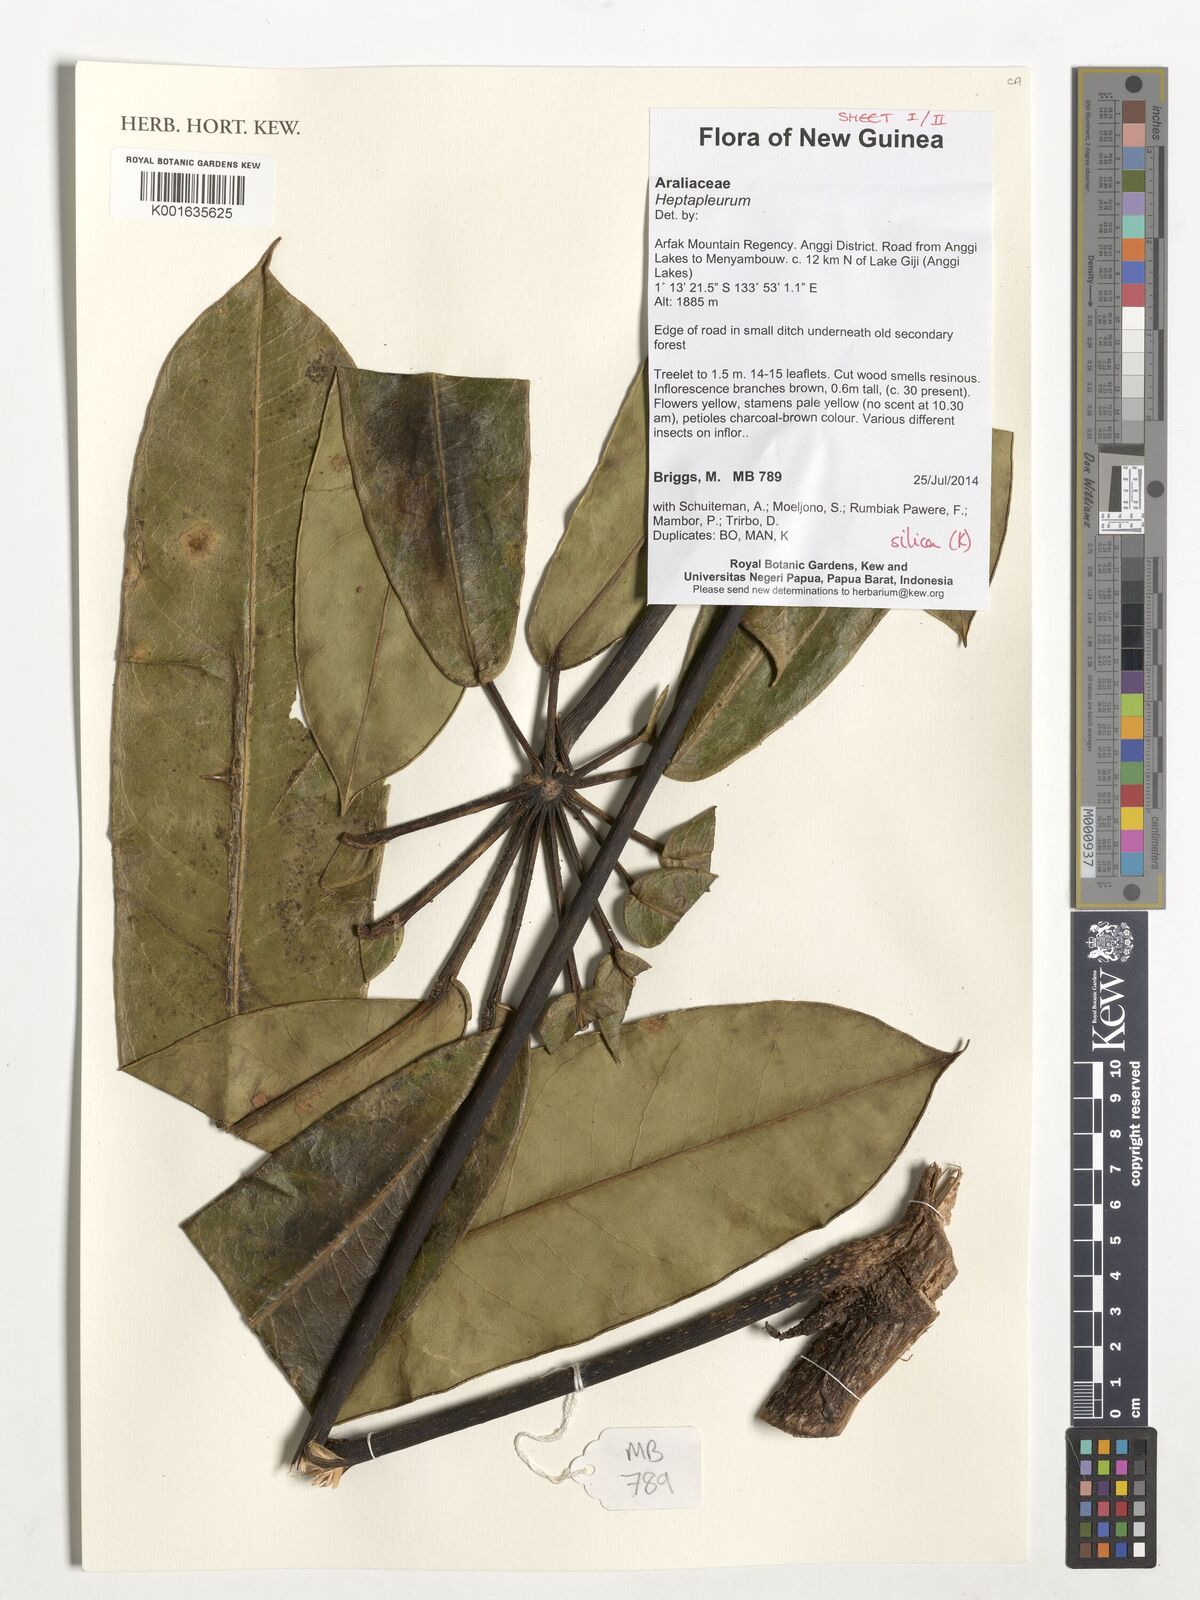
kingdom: Plantae
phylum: Tracheophyta
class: Magnoliopsida
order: Apiales
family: Araliaceae
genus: Heptapleurum
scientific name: Heptapleurum
